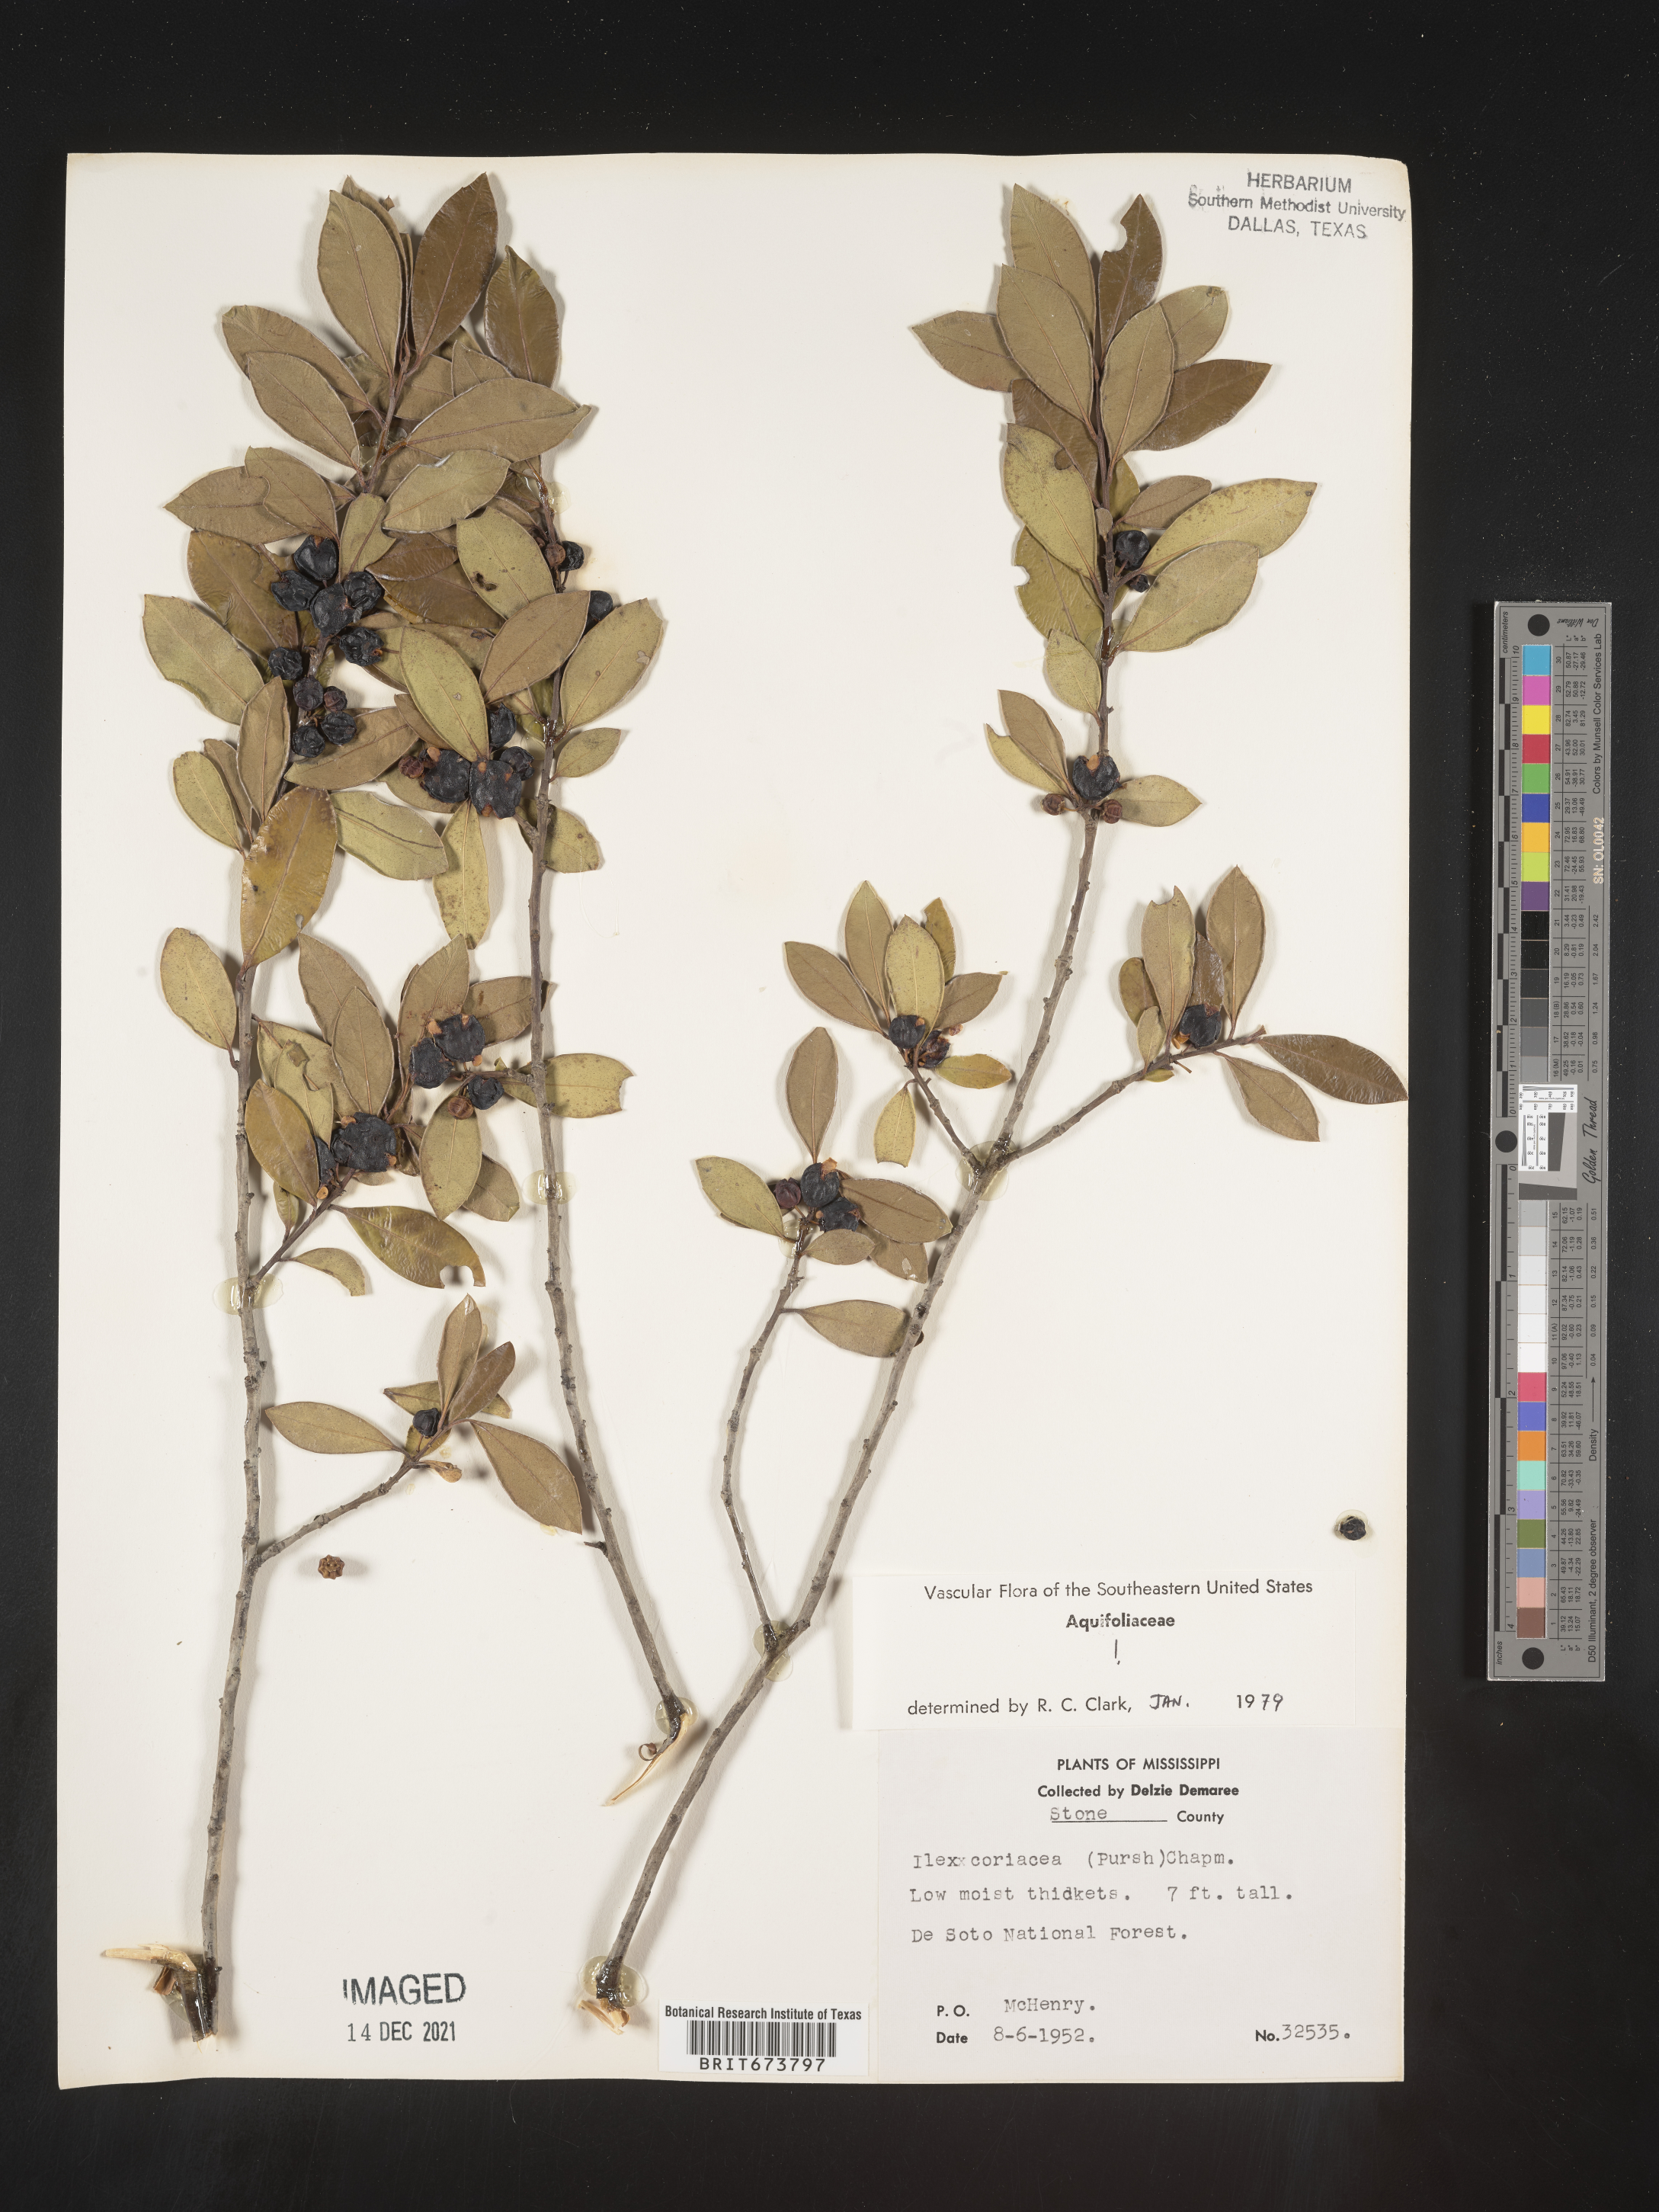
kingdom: Plantae
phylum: Tracheophyta
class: Magnoliopsida
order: Aquifoliales
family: Aquifoliaceae
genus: Ilex
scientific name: Ilex coriacea
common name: Sweet gallberry
